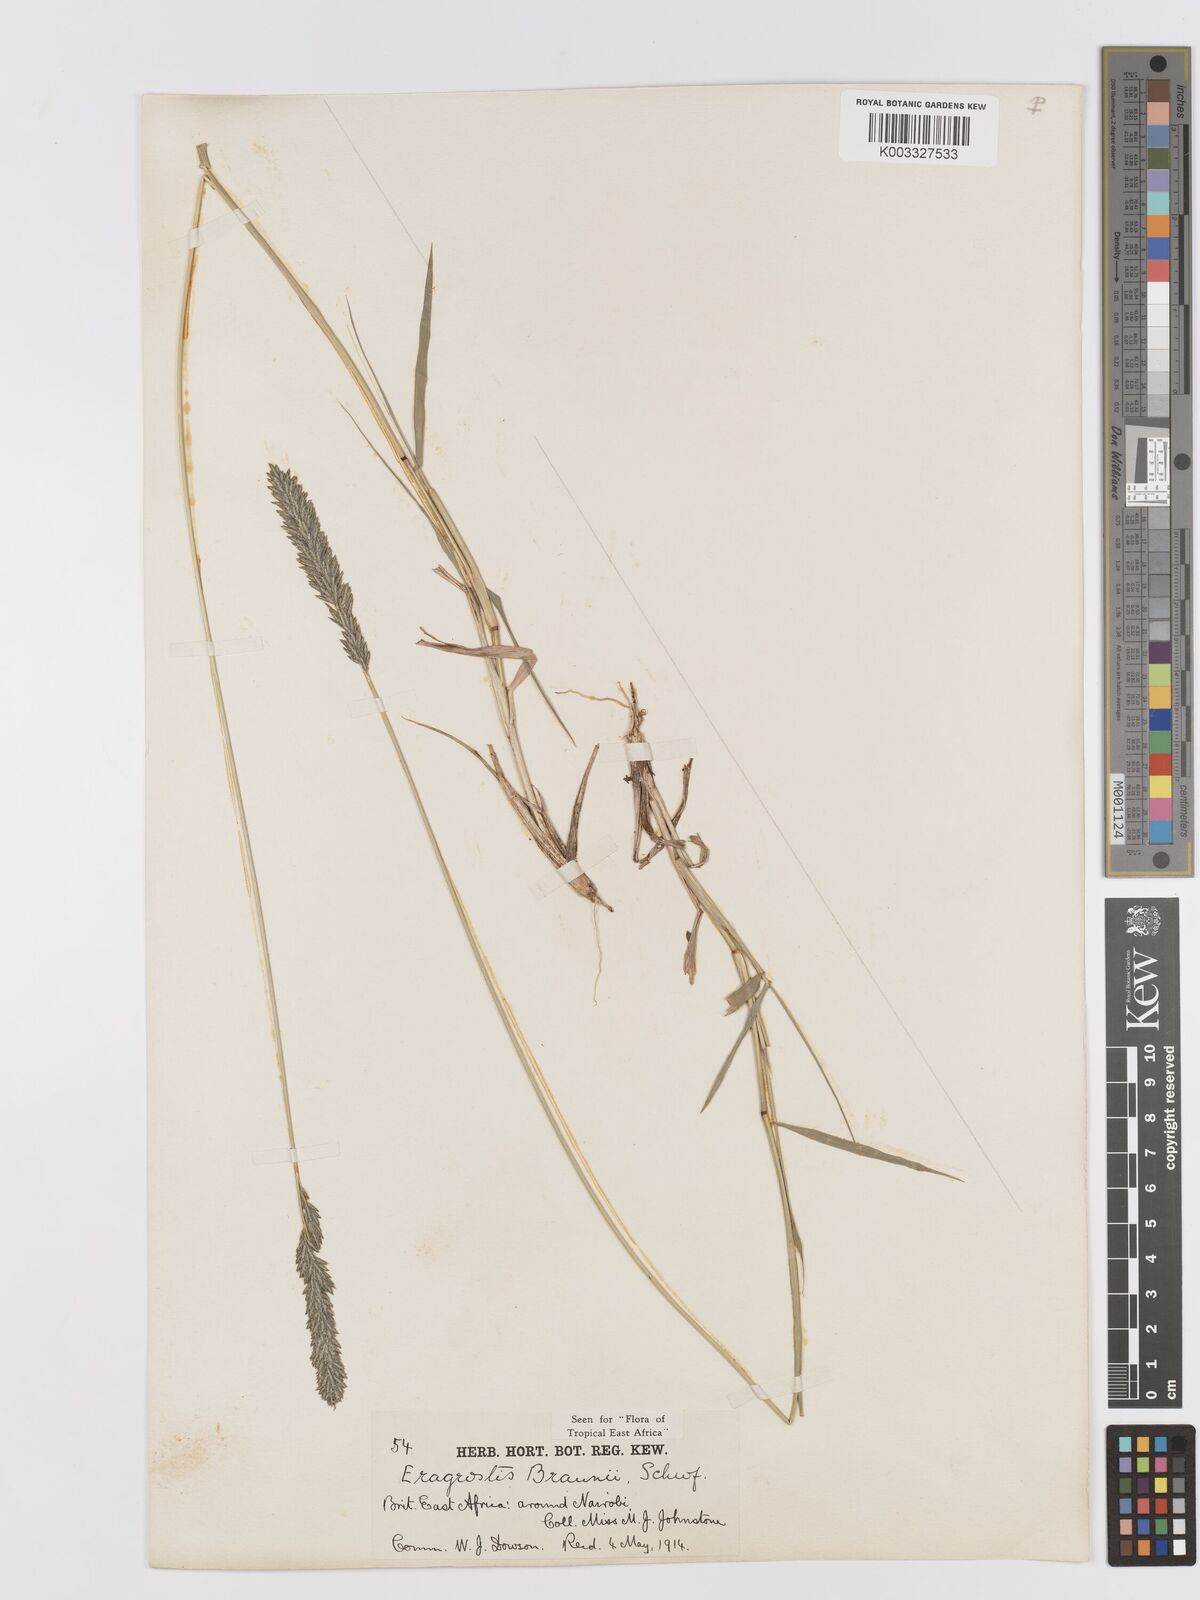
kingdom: Plantae
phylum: Tracheophyta
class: Liliopsida
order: Poales
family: Poaceae
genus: Eragrostis
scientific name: Eragrostis braunii
